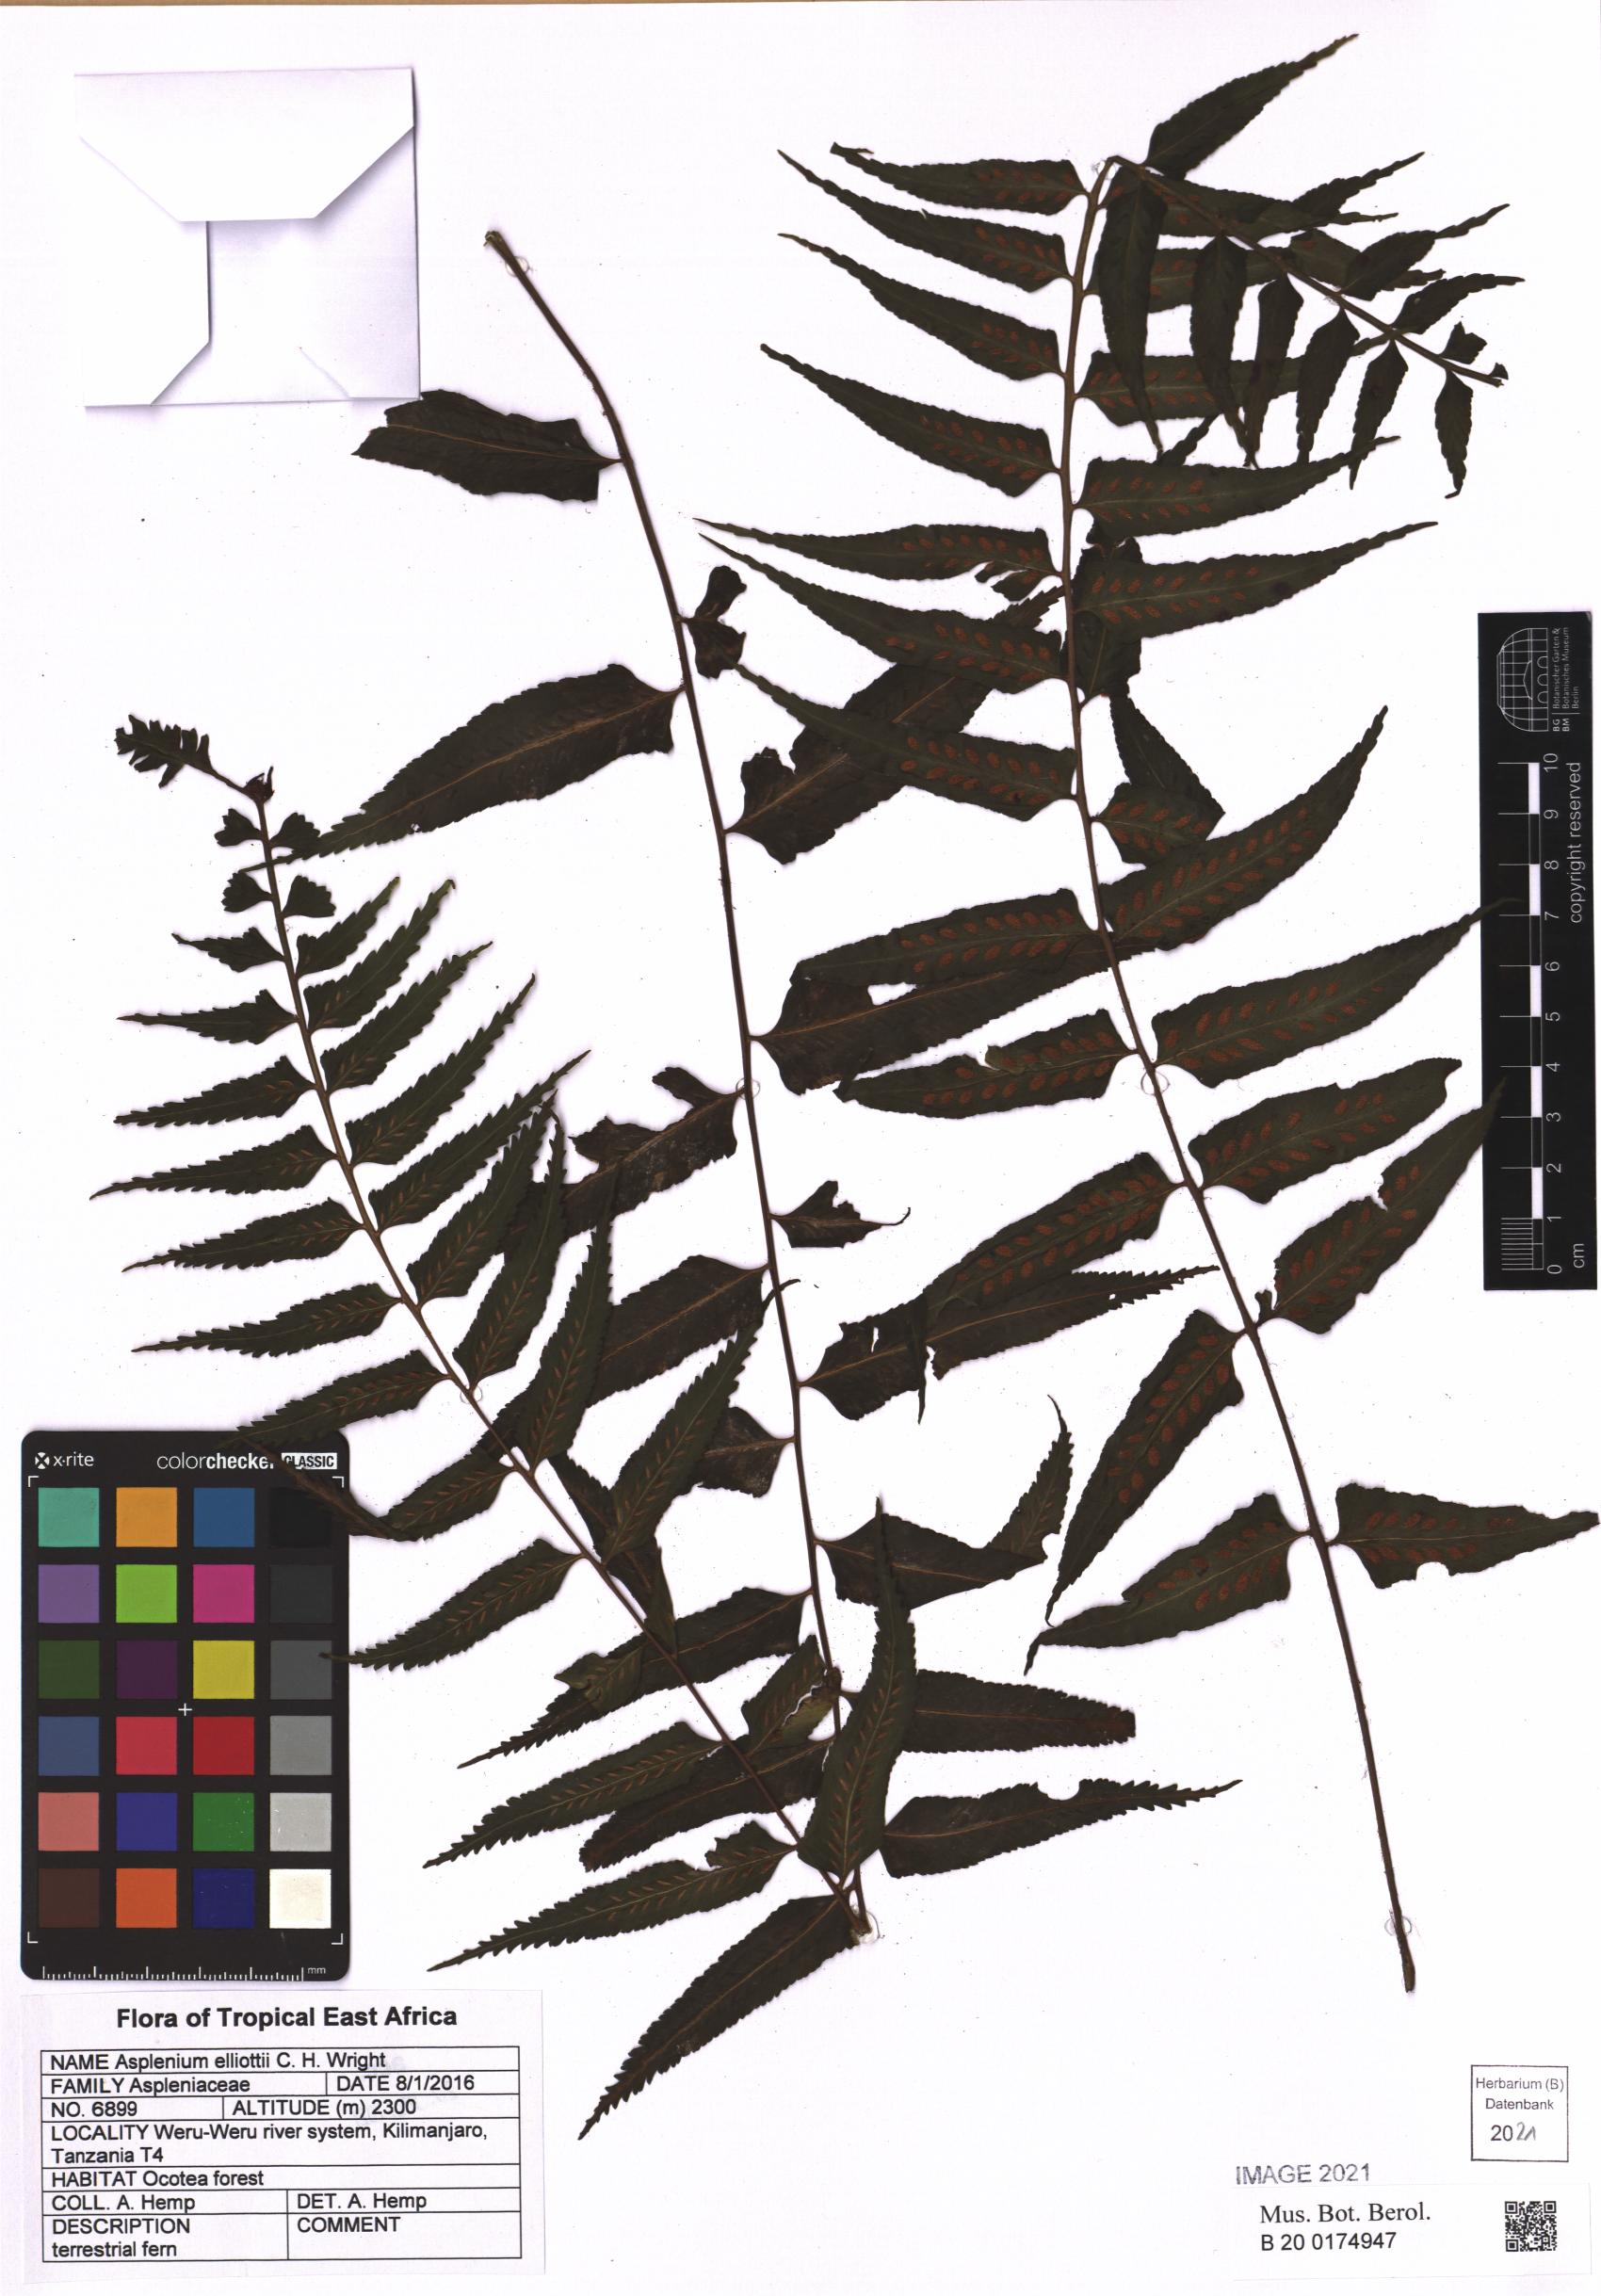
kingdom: Plantae
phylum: Tracheophyta
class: Polypodiopsida
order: Polypodiales
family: Aspleniaceae
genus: Asplenium
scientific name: Asplenium elliottii
